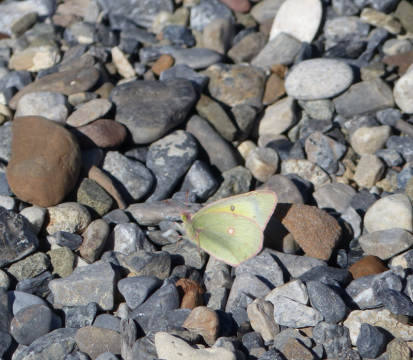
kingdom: Animalia
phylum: Arthropoda
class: Insecta
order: Lepidoptera
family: Pieridae
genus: Colias
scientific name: Colias philodice
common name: Clouded Sulphur
